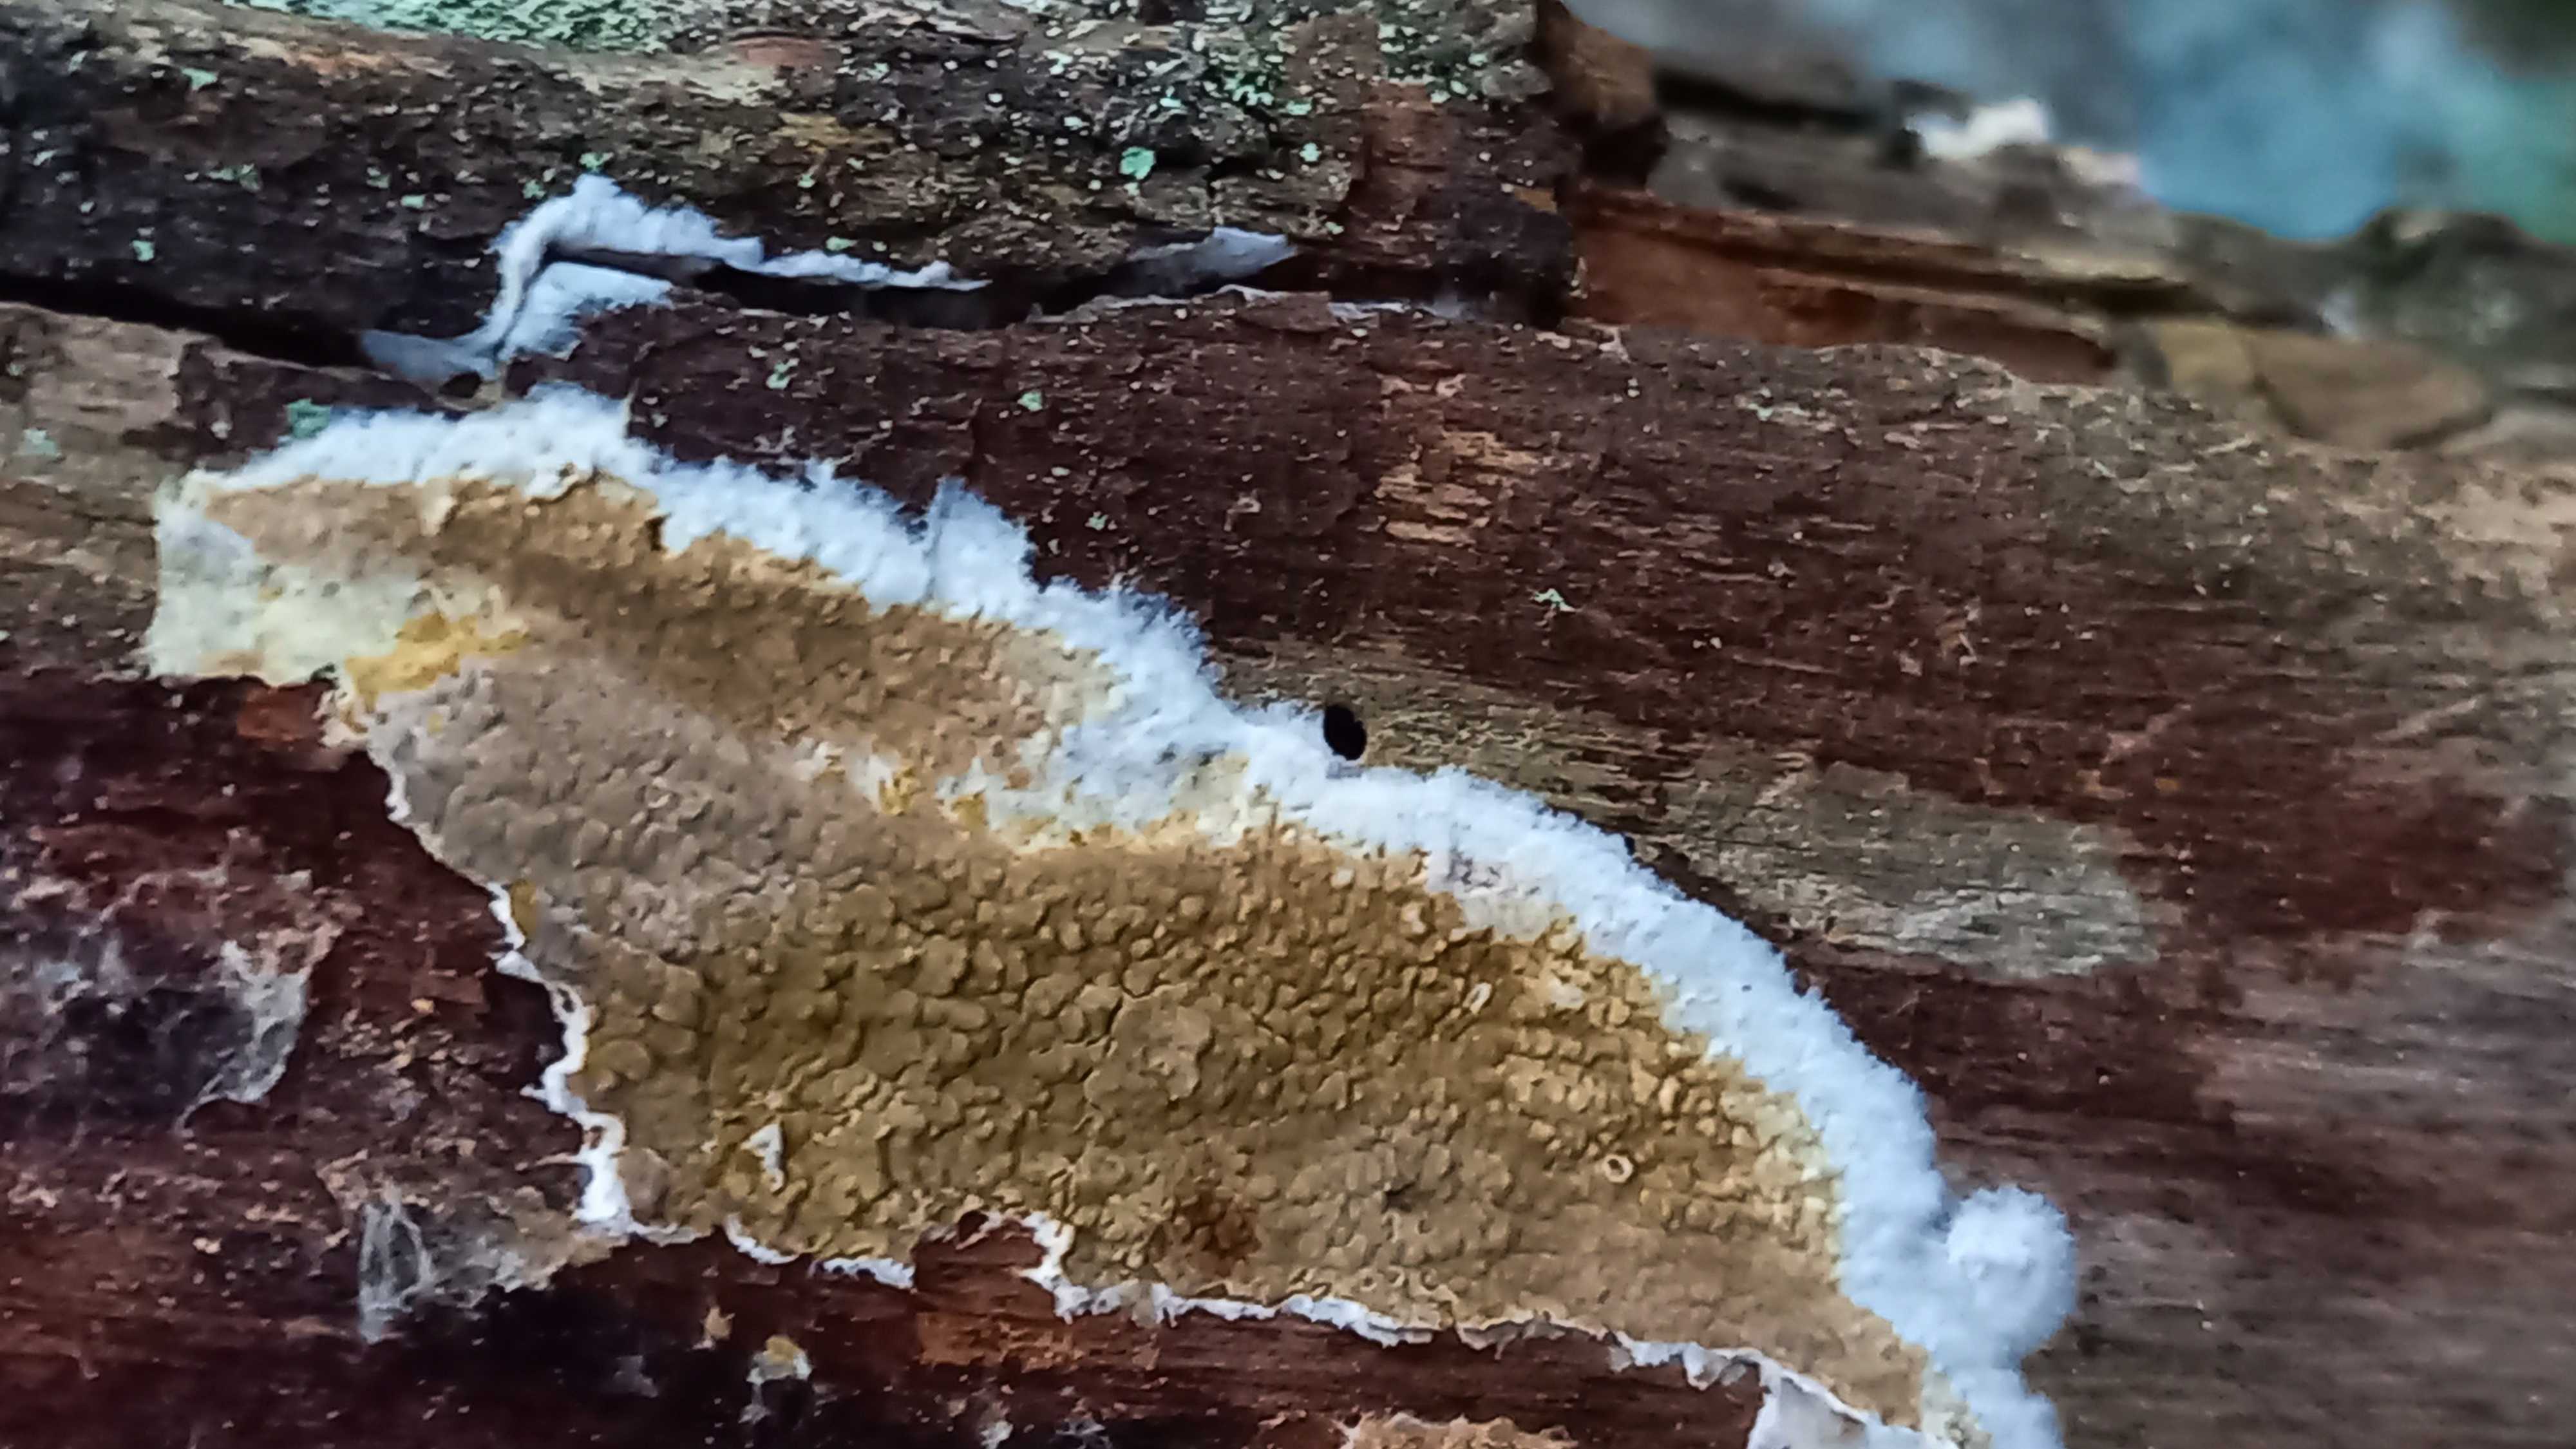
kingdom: Fungi
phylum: Basidiomycota
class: Agaricomycetes
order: Boletales
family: Coniophoraceae
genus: Coniophora
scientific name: Coniophora puteana
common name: gul tømmersvamp
